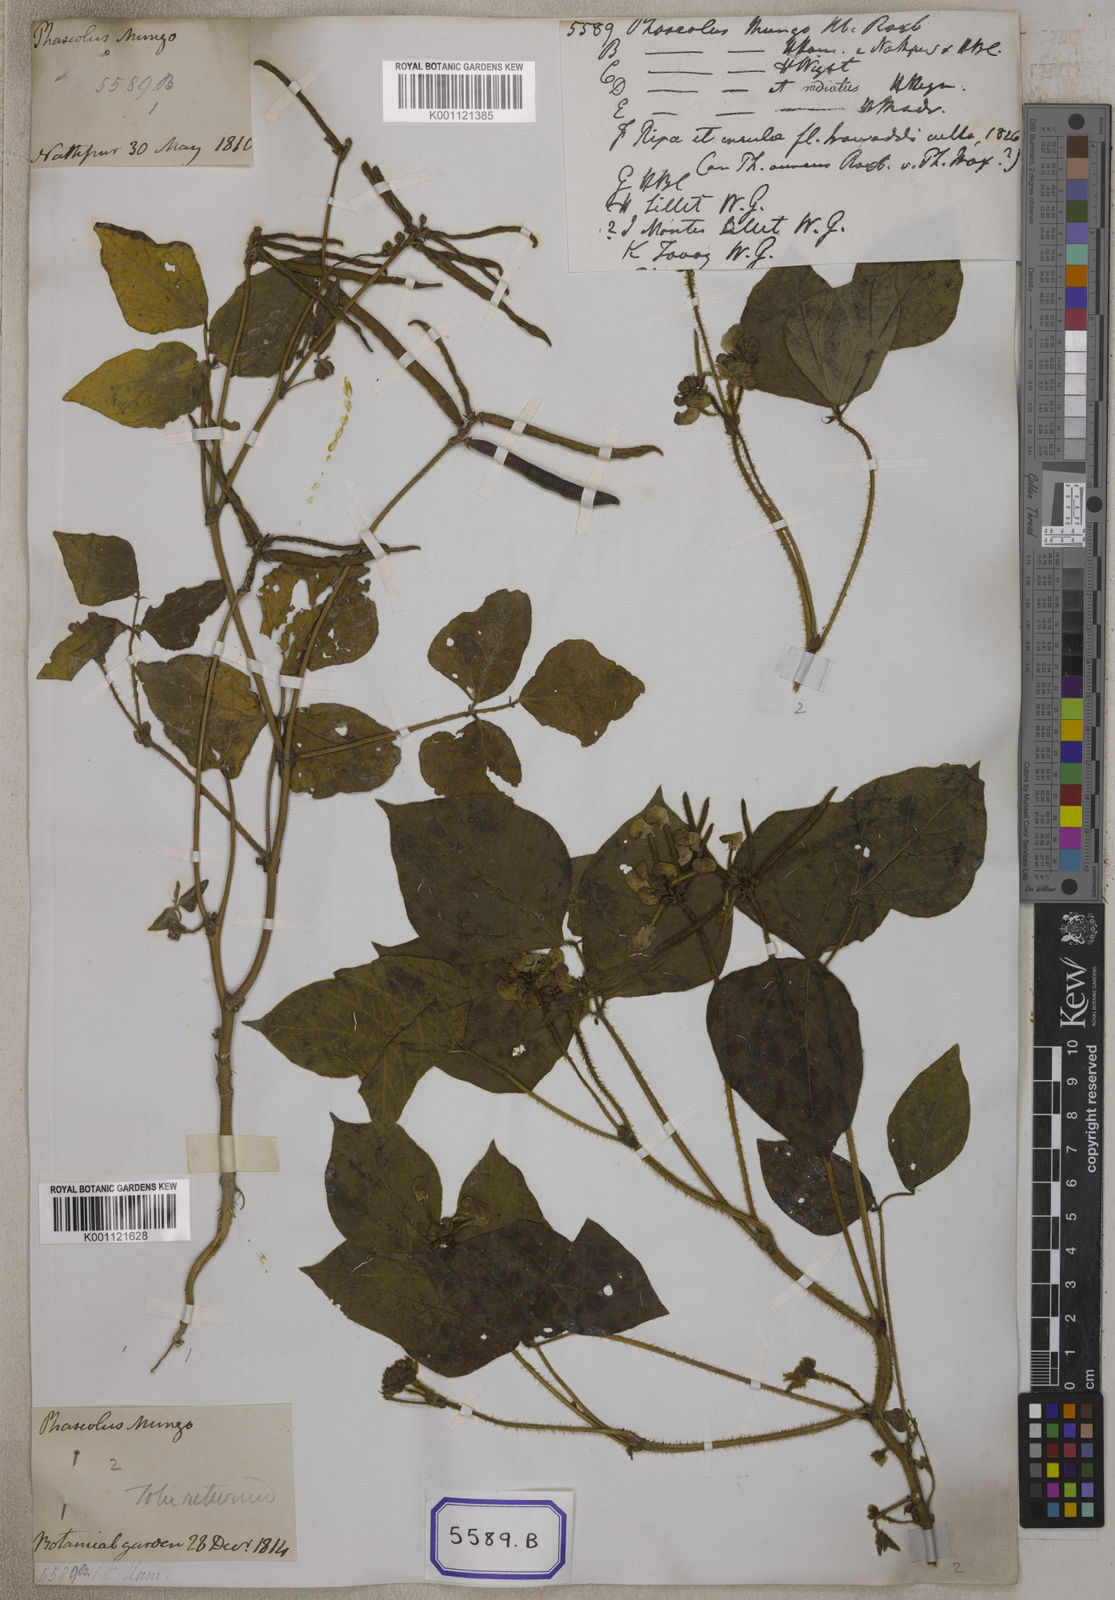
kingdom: Plantae
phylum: Tracheophyta
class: Magnoliopsida
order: Fabales
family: Fabaceae
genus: Phaseolus
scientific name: Phaseolus
